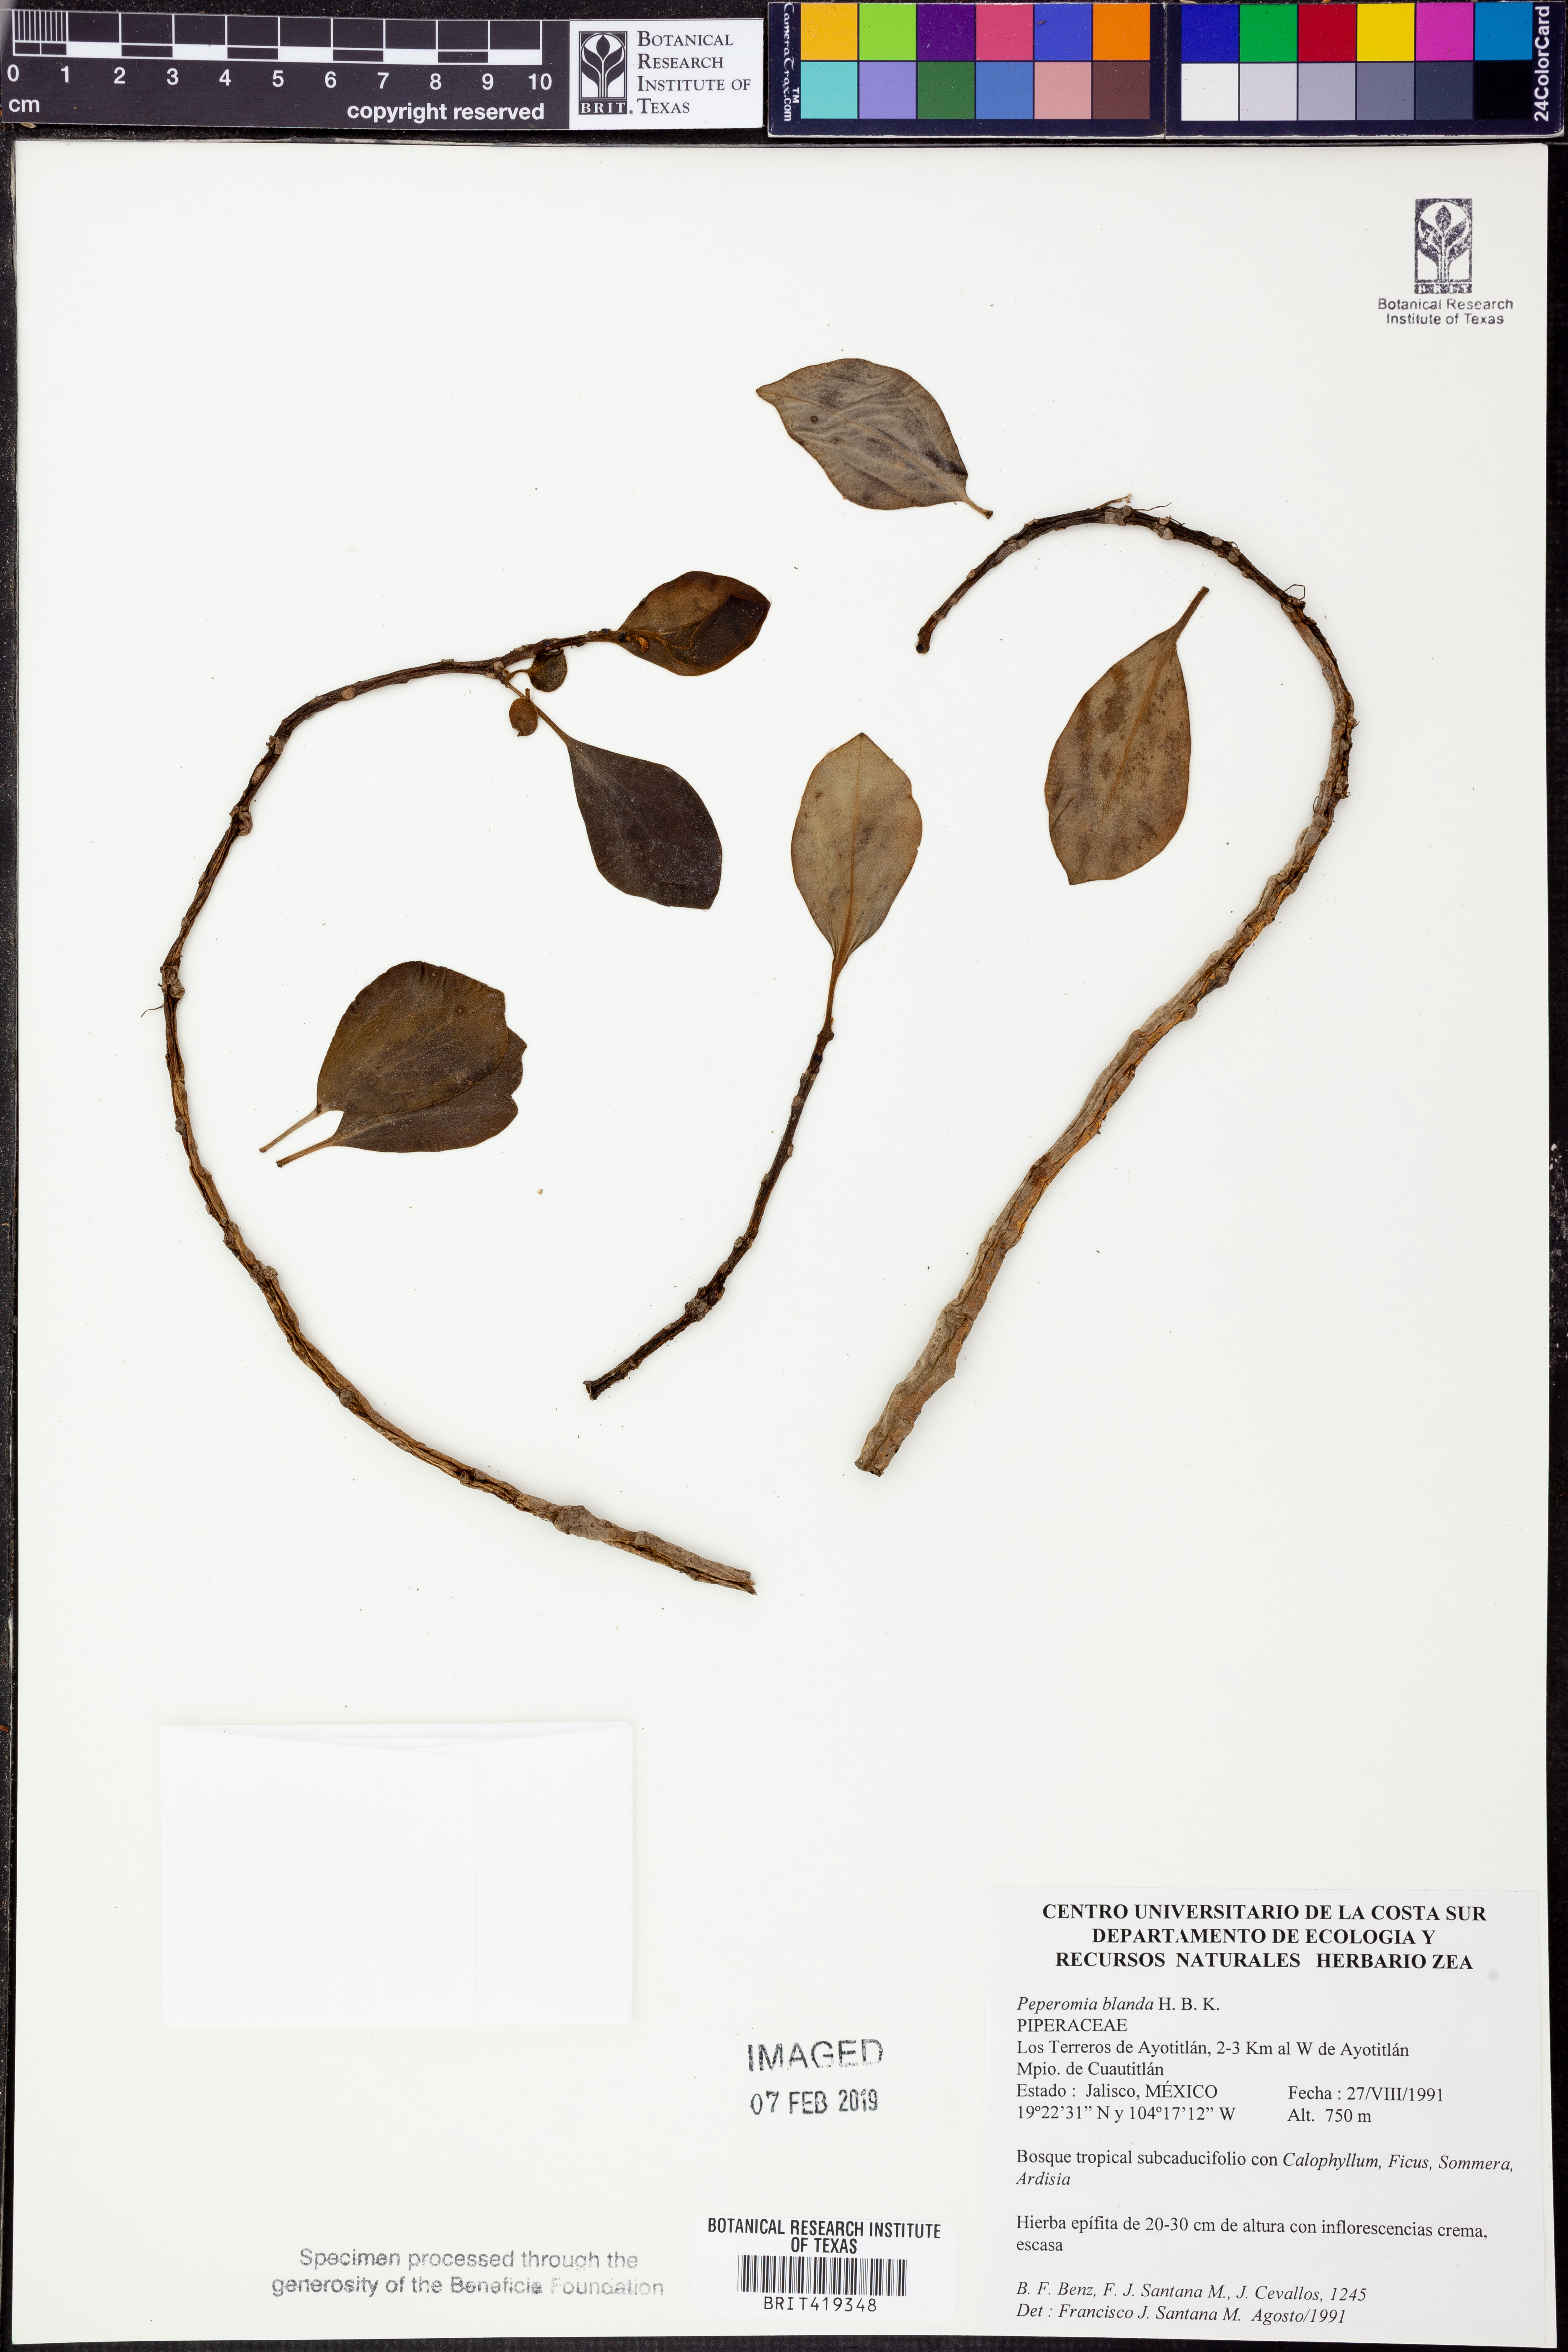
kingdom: Plantae
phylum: Tracheophyta
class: Magnoliopsida
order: Piperales
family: Piperaceae
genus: Peperomia
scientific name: Peperomia blanda
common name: Arid-land peperomia
